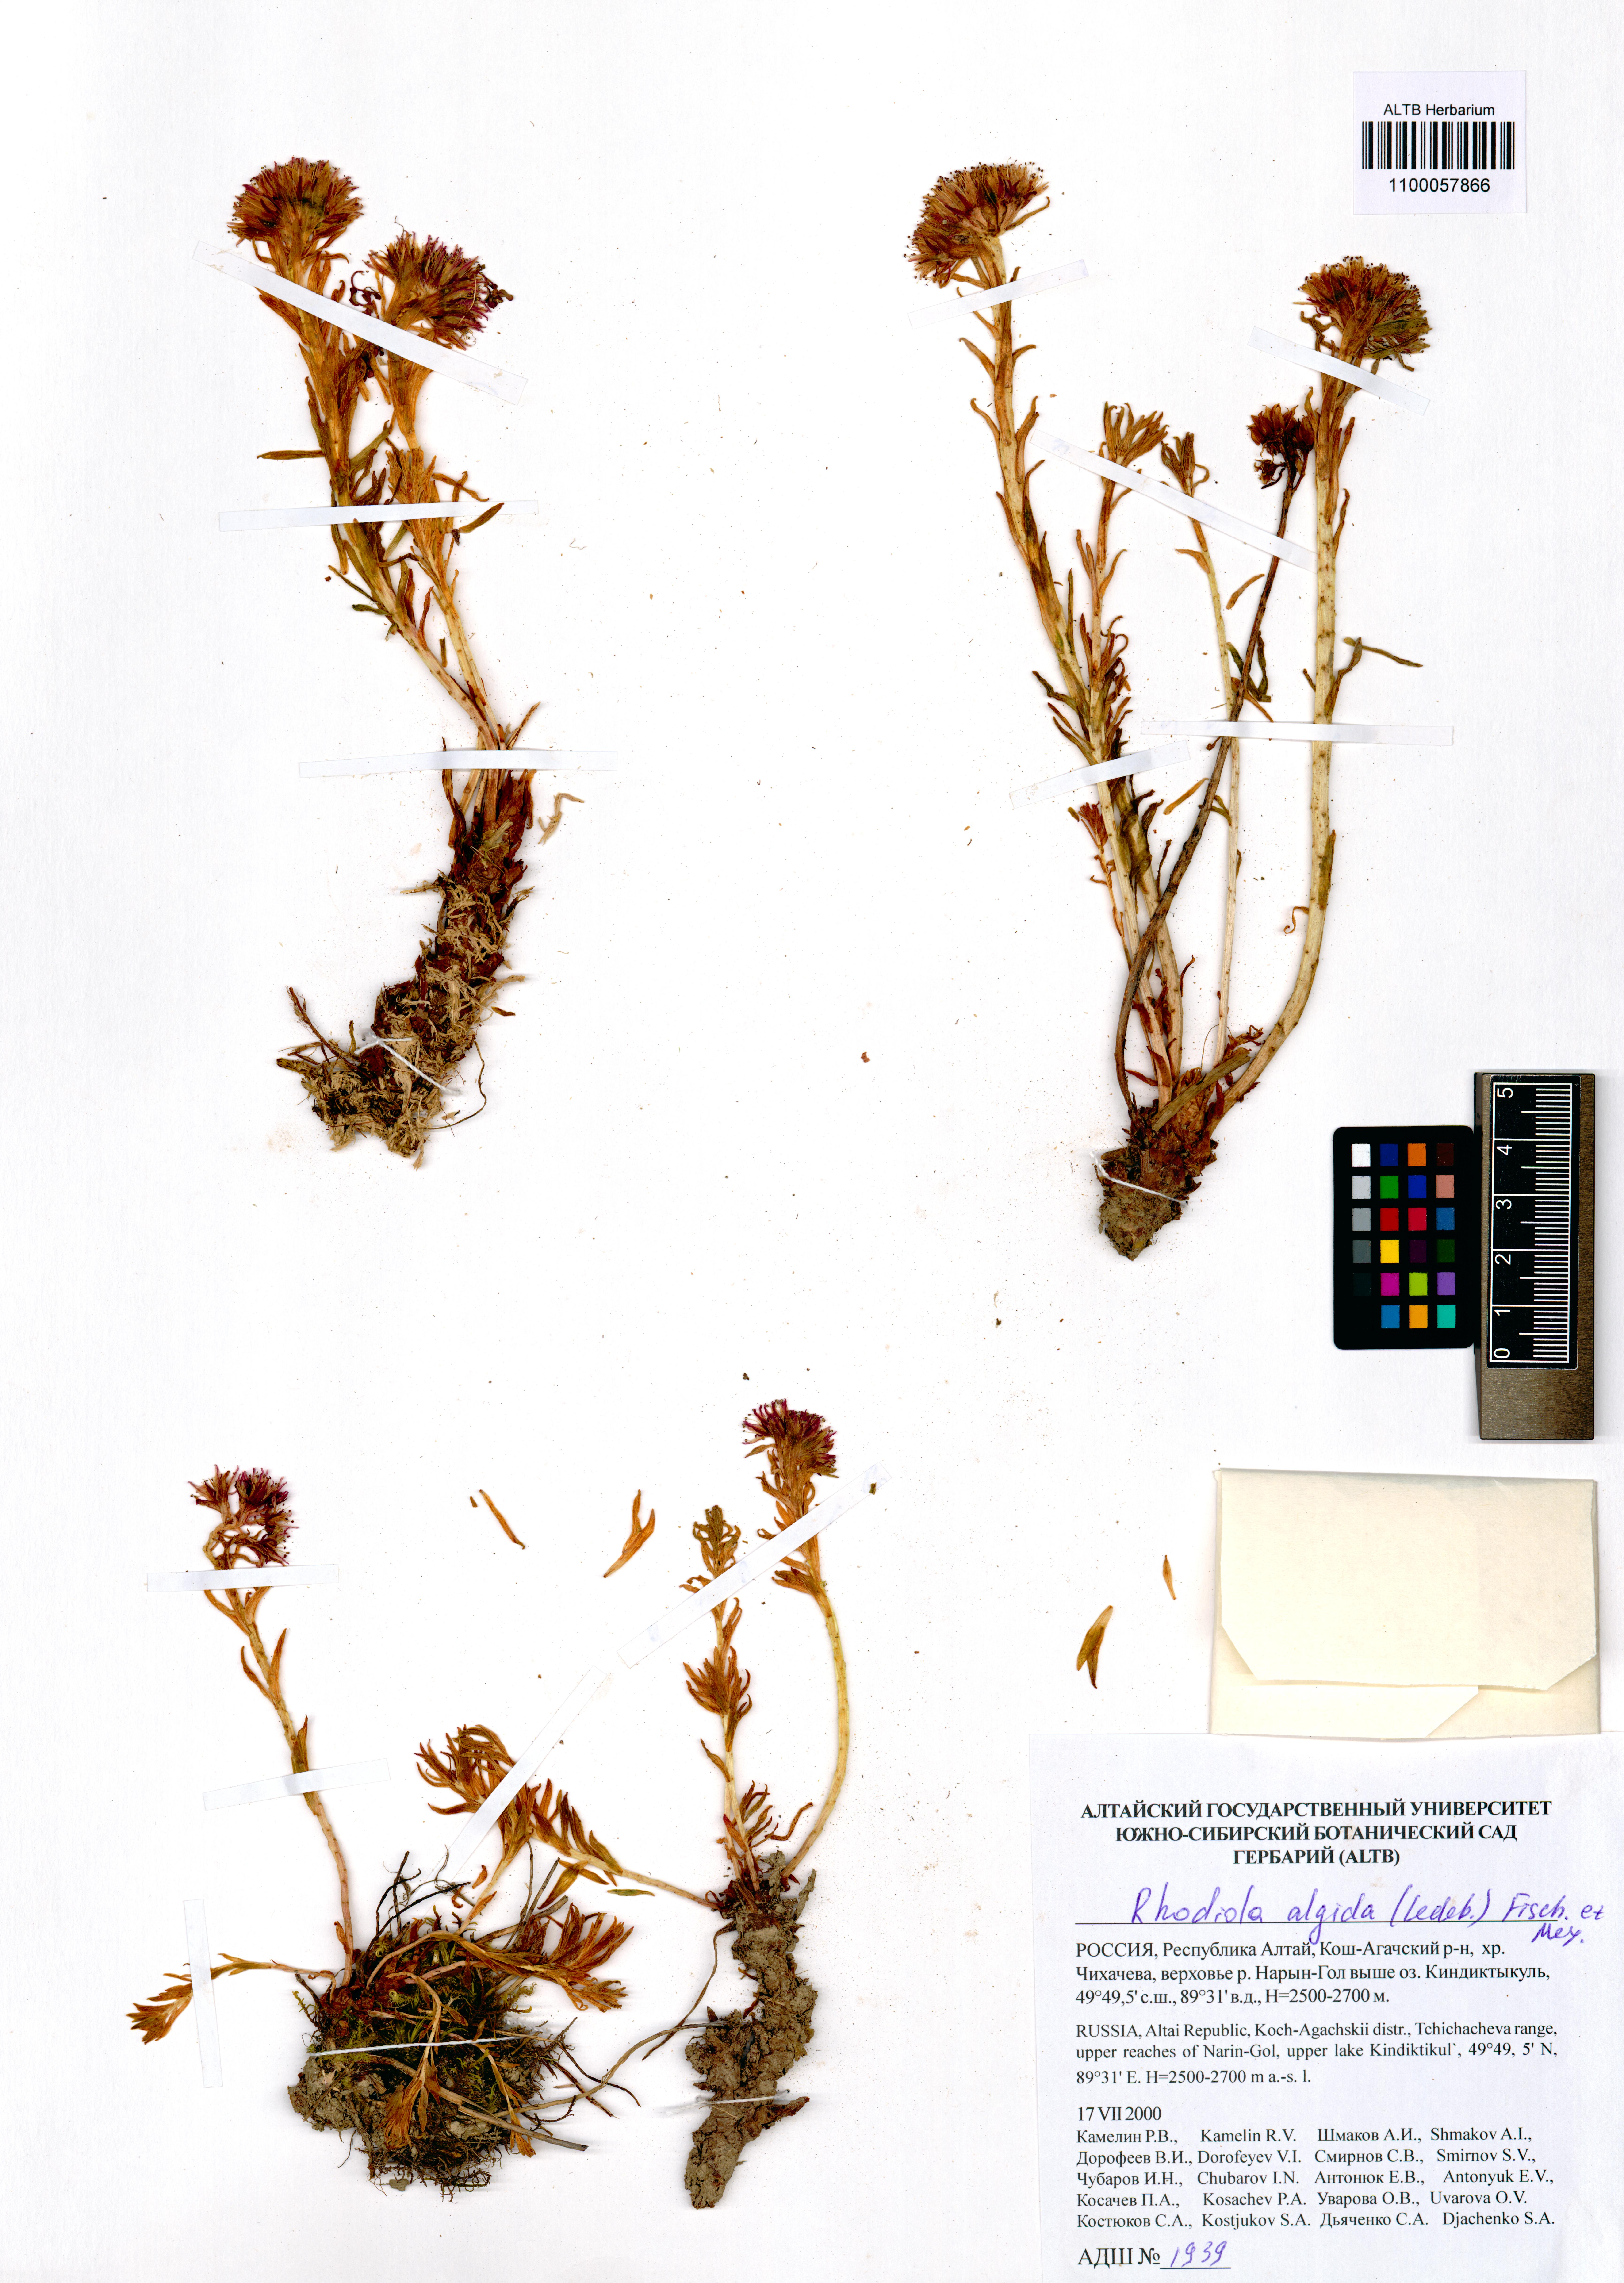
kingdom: Plantae
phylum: Tracheophyta
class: Magnoliopsida
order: Saxifragales
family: Crassulaceae
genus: Rhodiola
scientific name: Rhodiola algida
